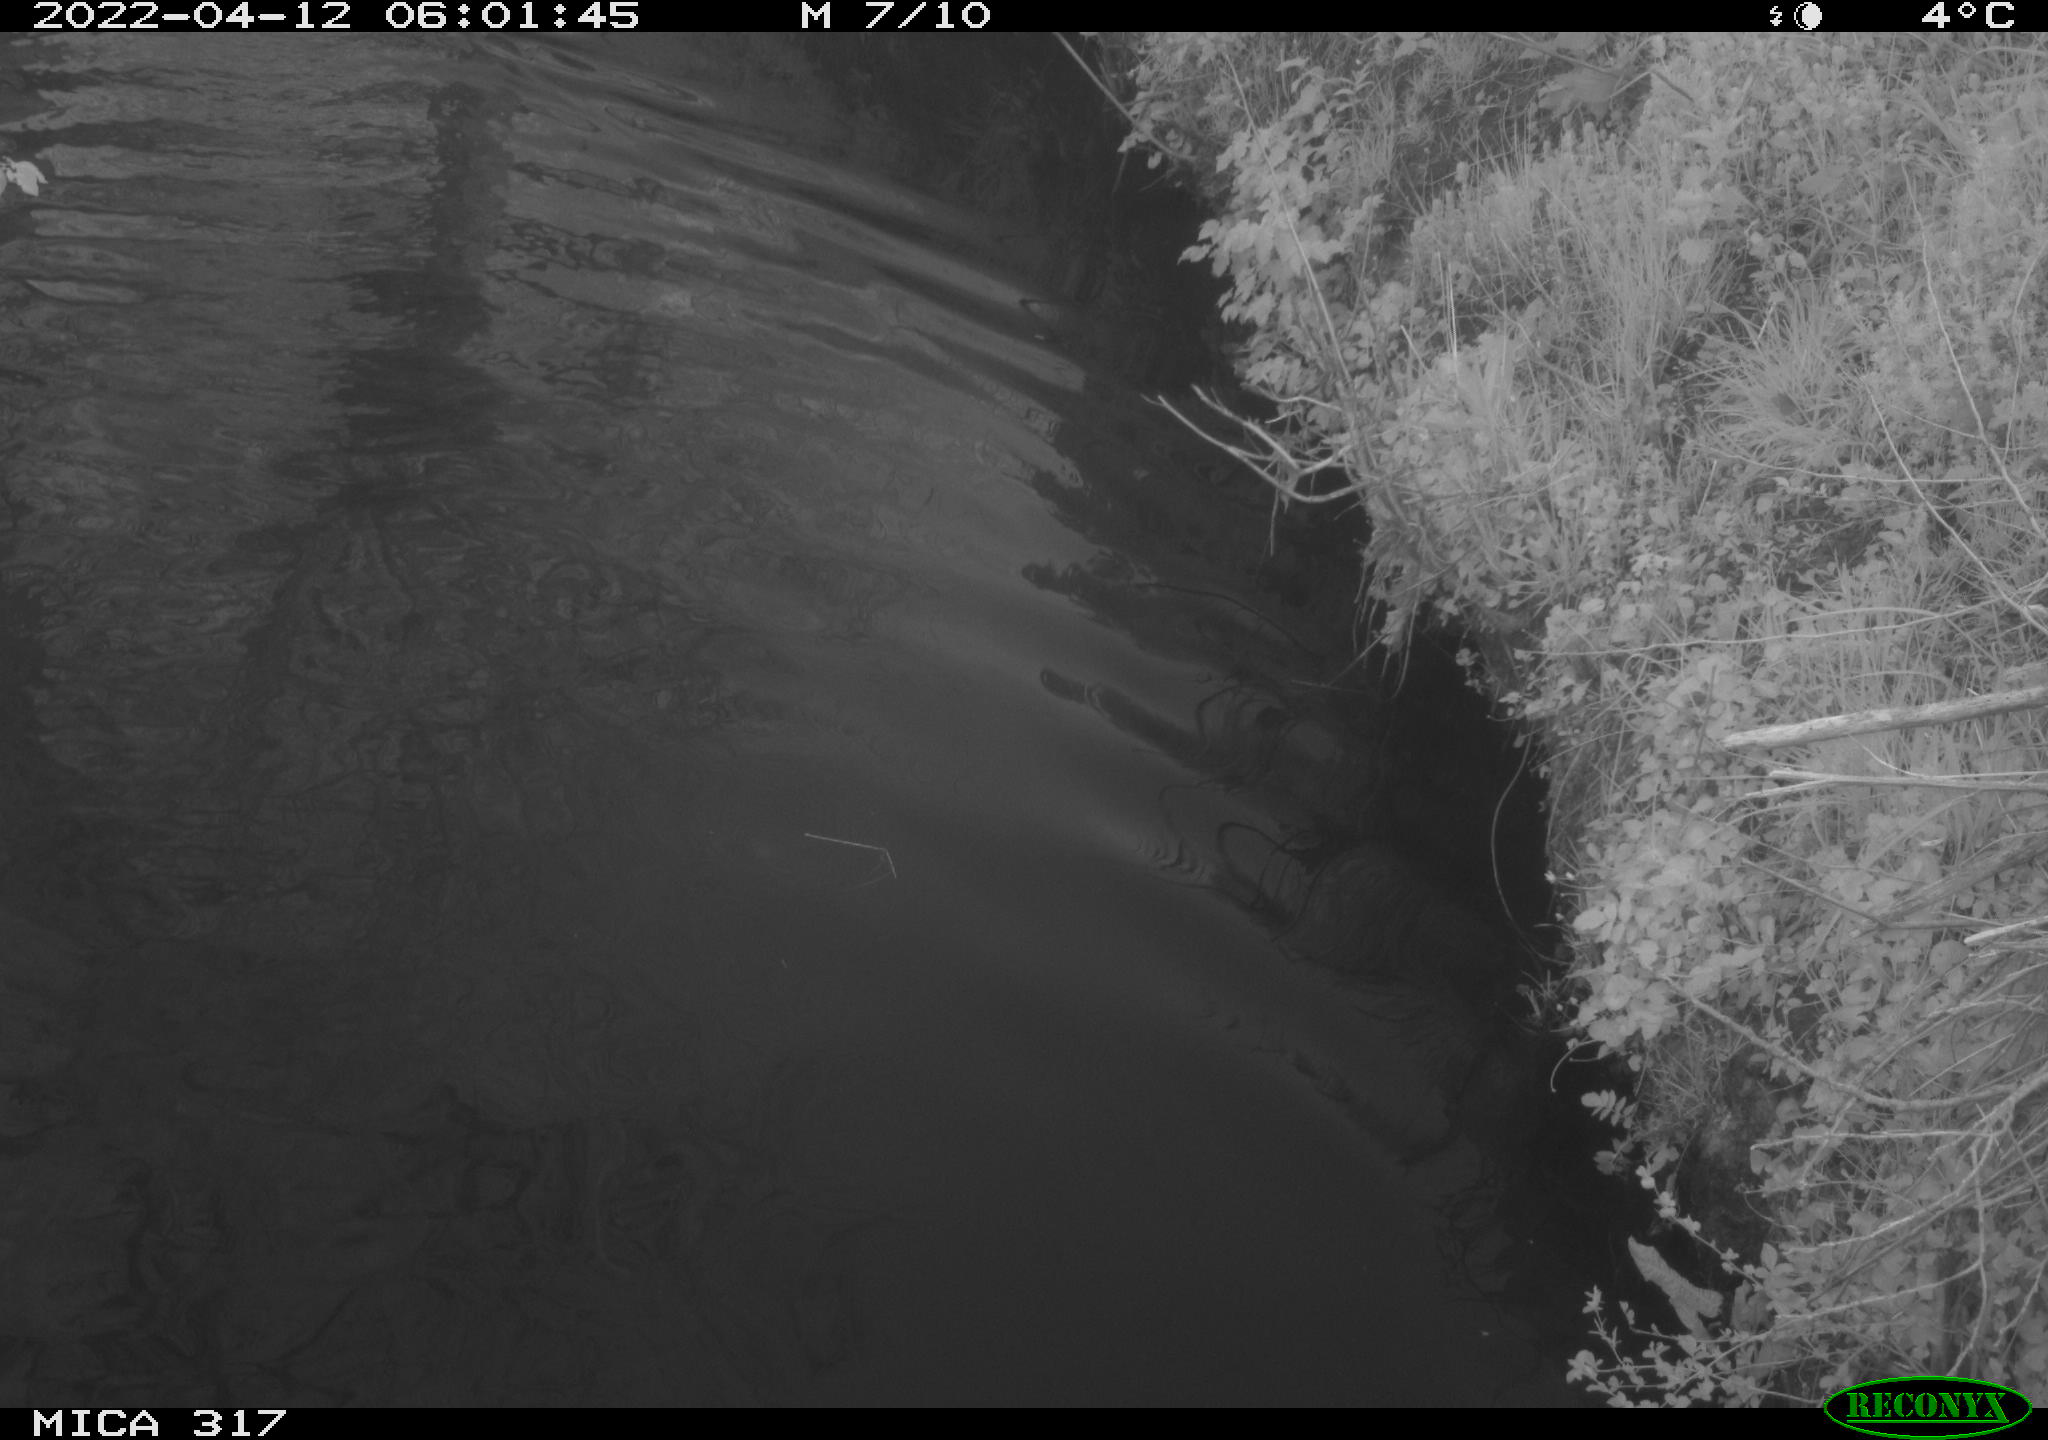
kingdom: Animalia
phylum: Chordata
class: Aves
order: Anseriformes
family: Anatidae
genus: Anas
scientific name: Anas platyrhynchos
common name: Mallard
